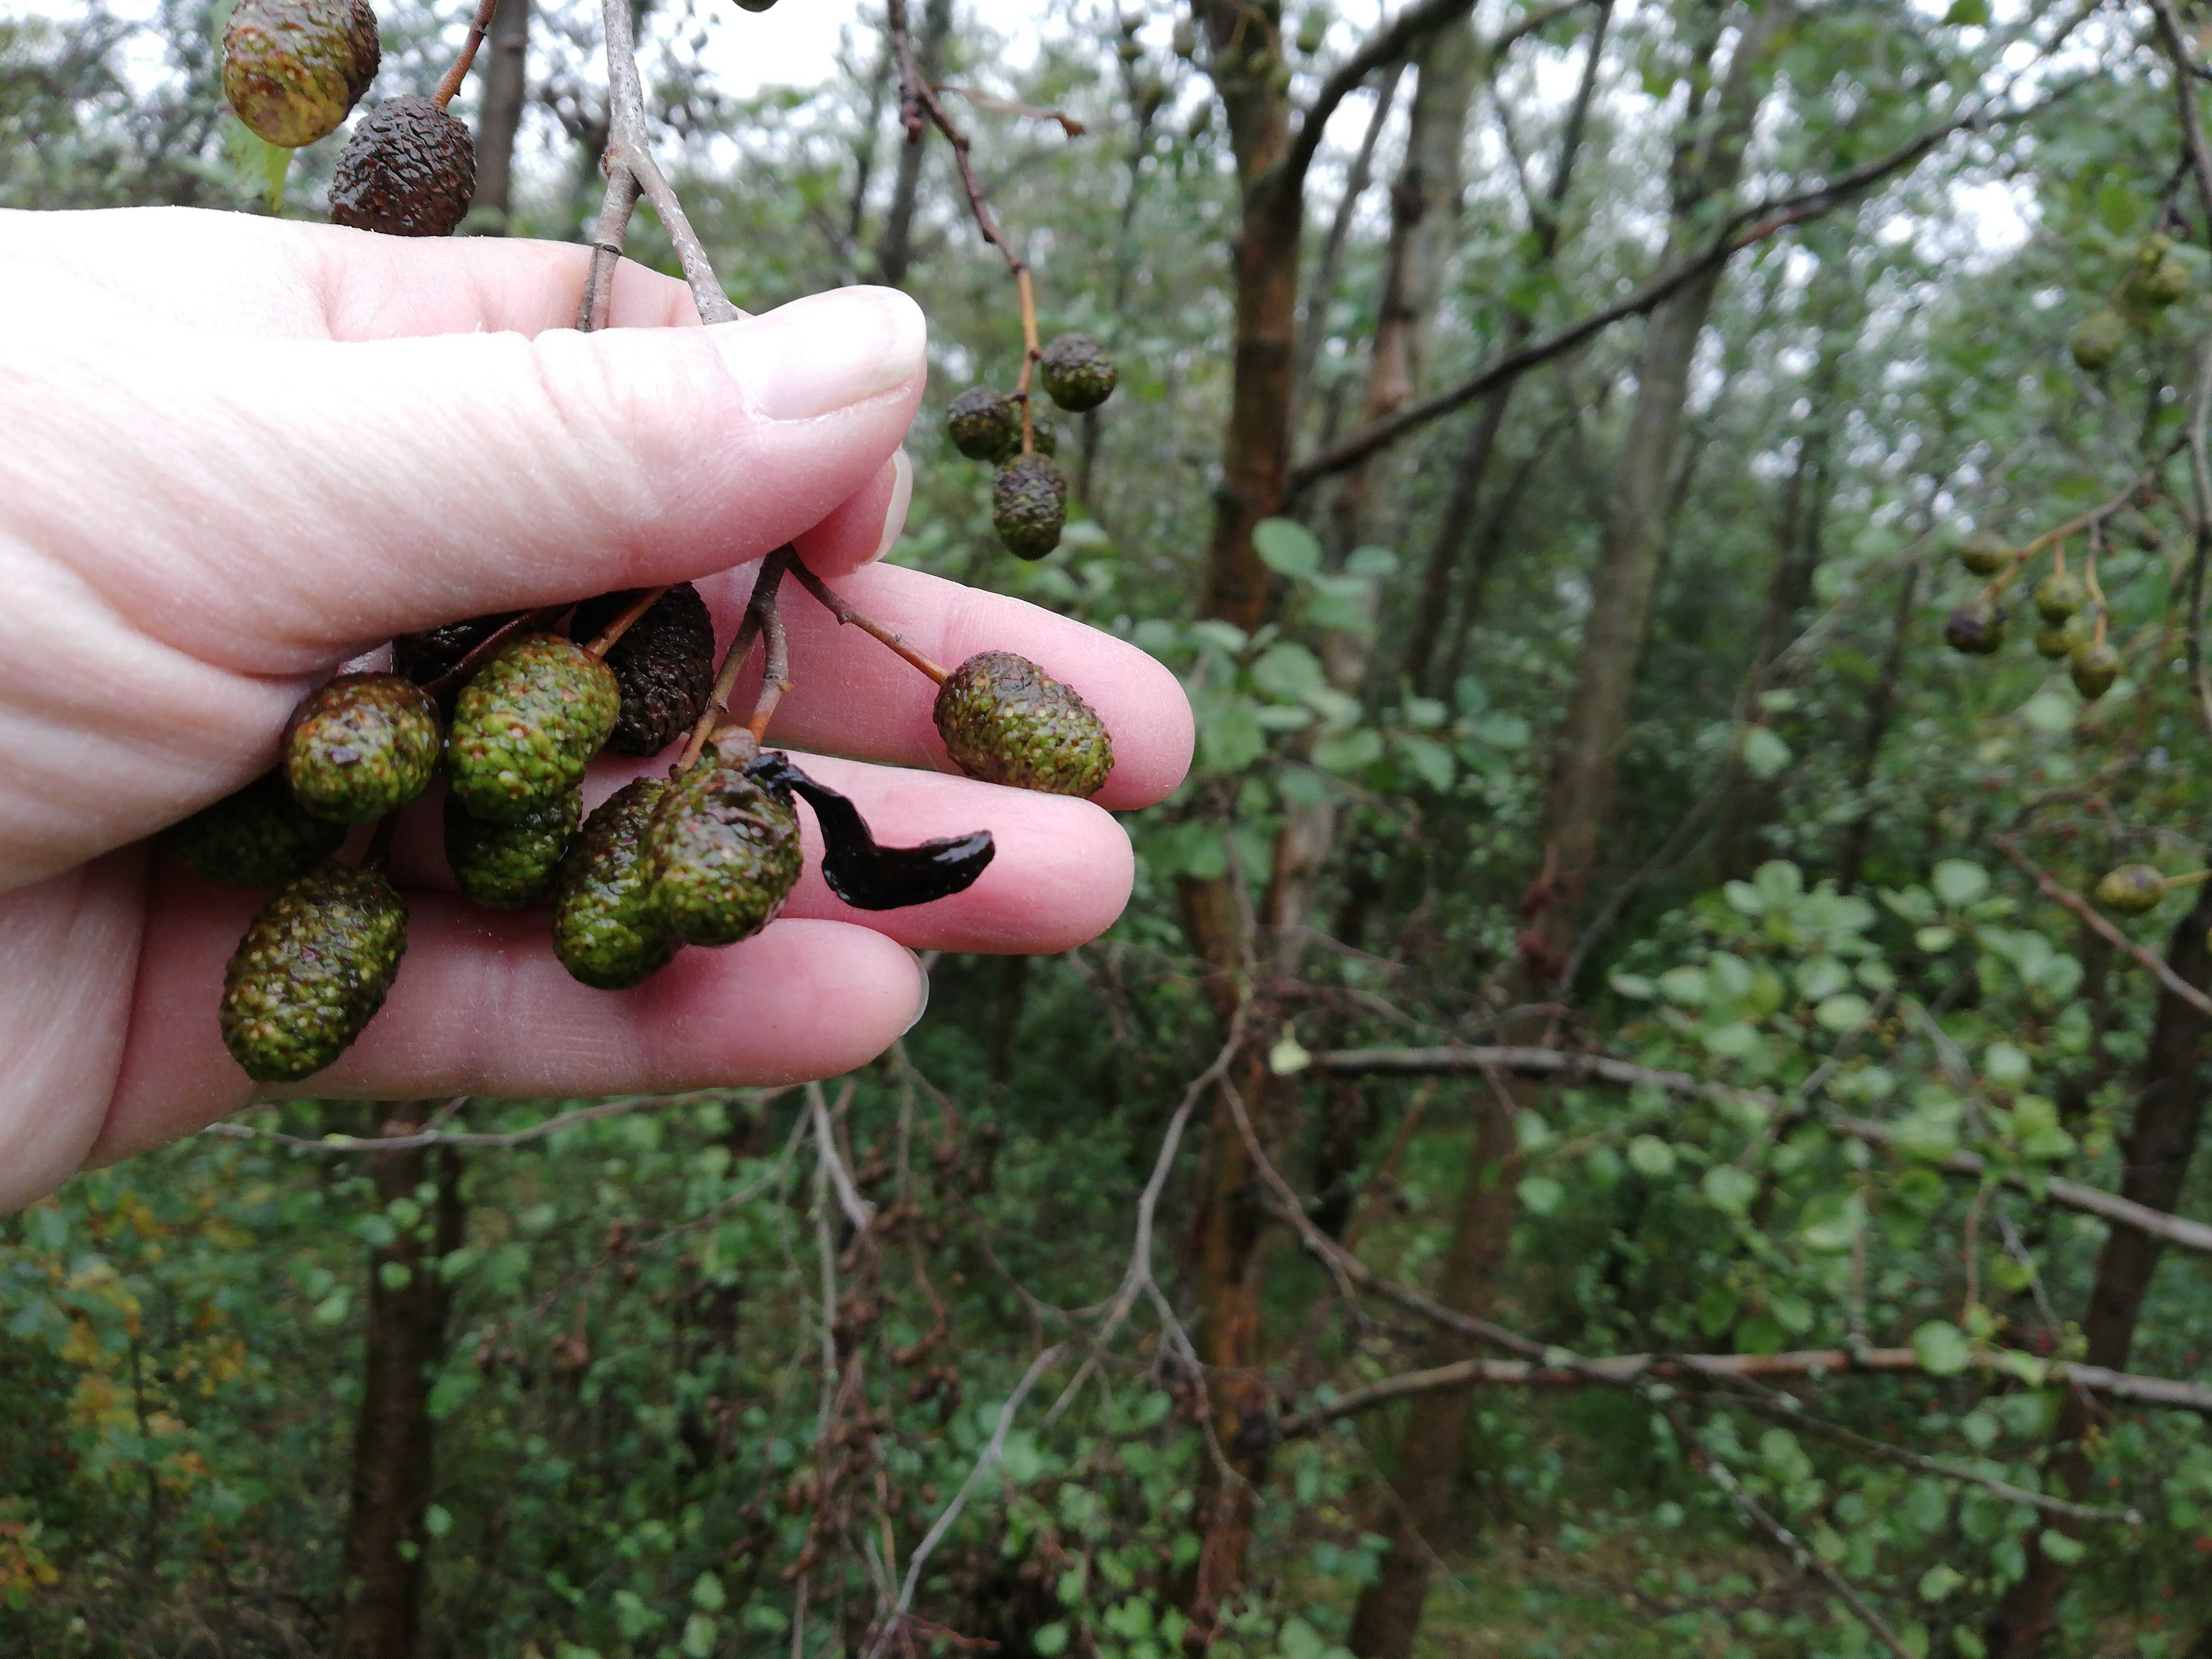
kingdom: Fungi
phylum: Ascomycota
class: Taphrinomycetes
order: Taphrinales
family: Taphrinaceae
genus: Taphrina
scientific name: Taphrina alni
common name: Alder tongue
